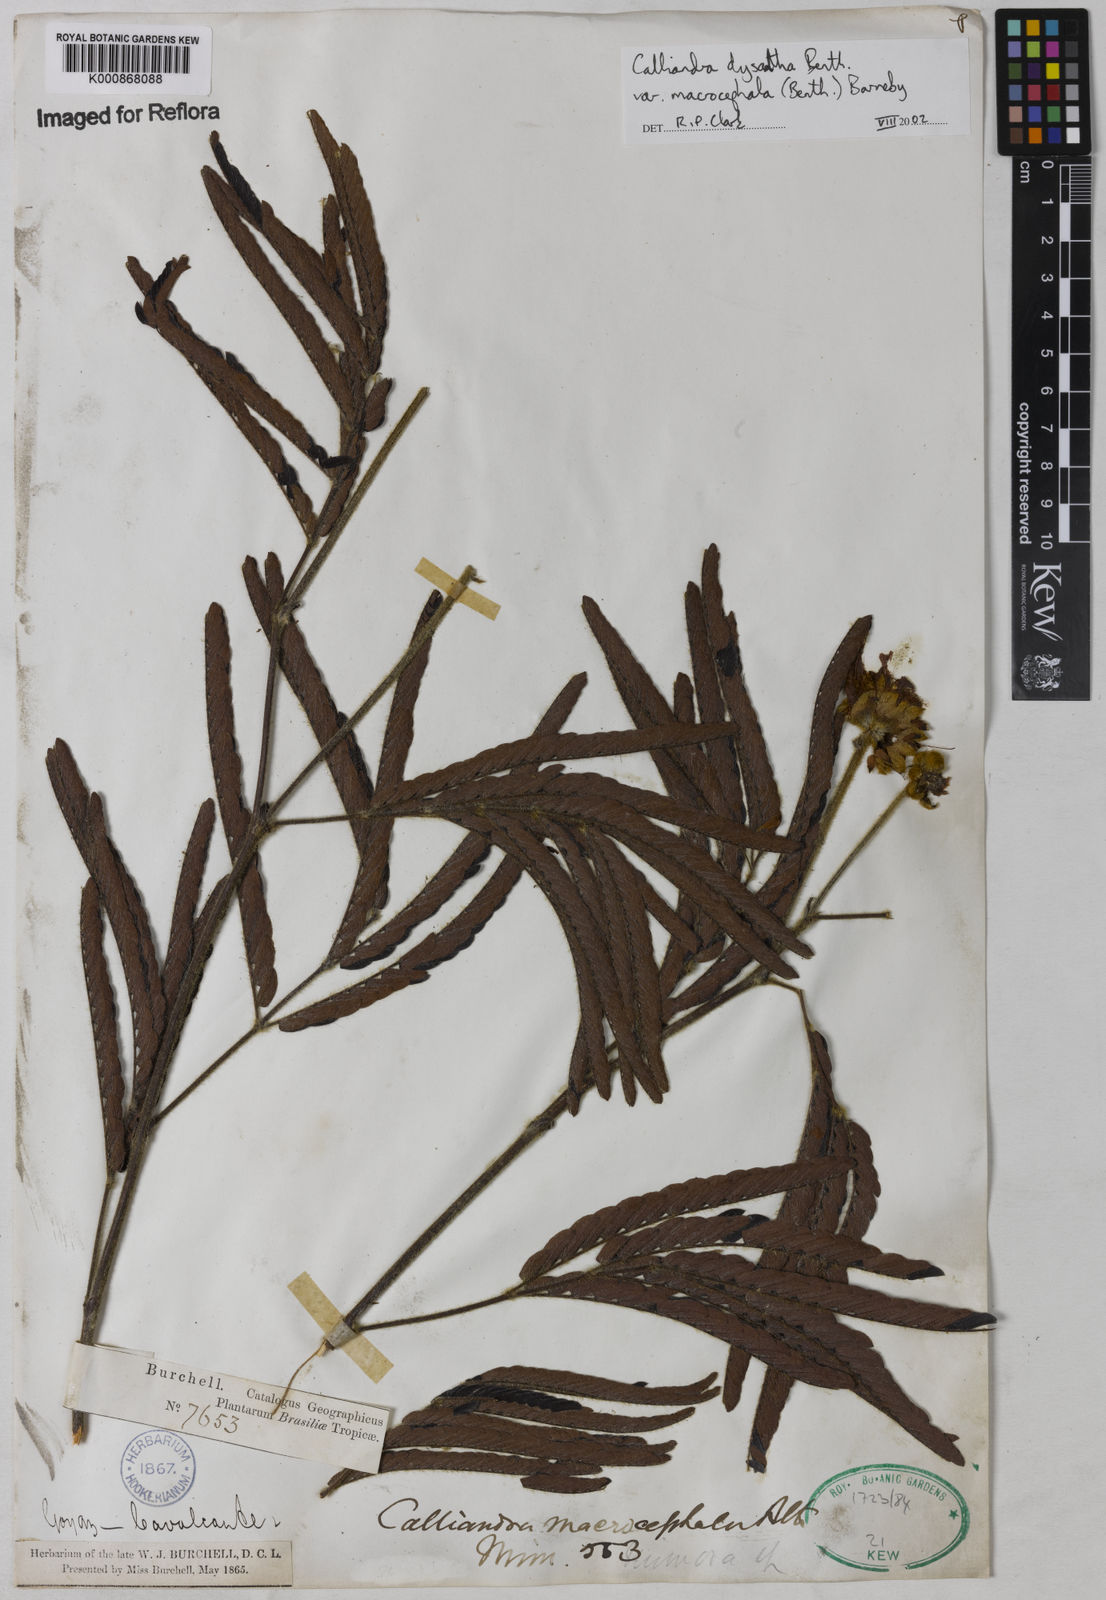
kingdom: Plantae
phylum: Tracheophyta
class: Magnoliopsida
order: Fabales
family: Fabaceae
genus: Calliandra
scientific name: Calliandra dysantha
